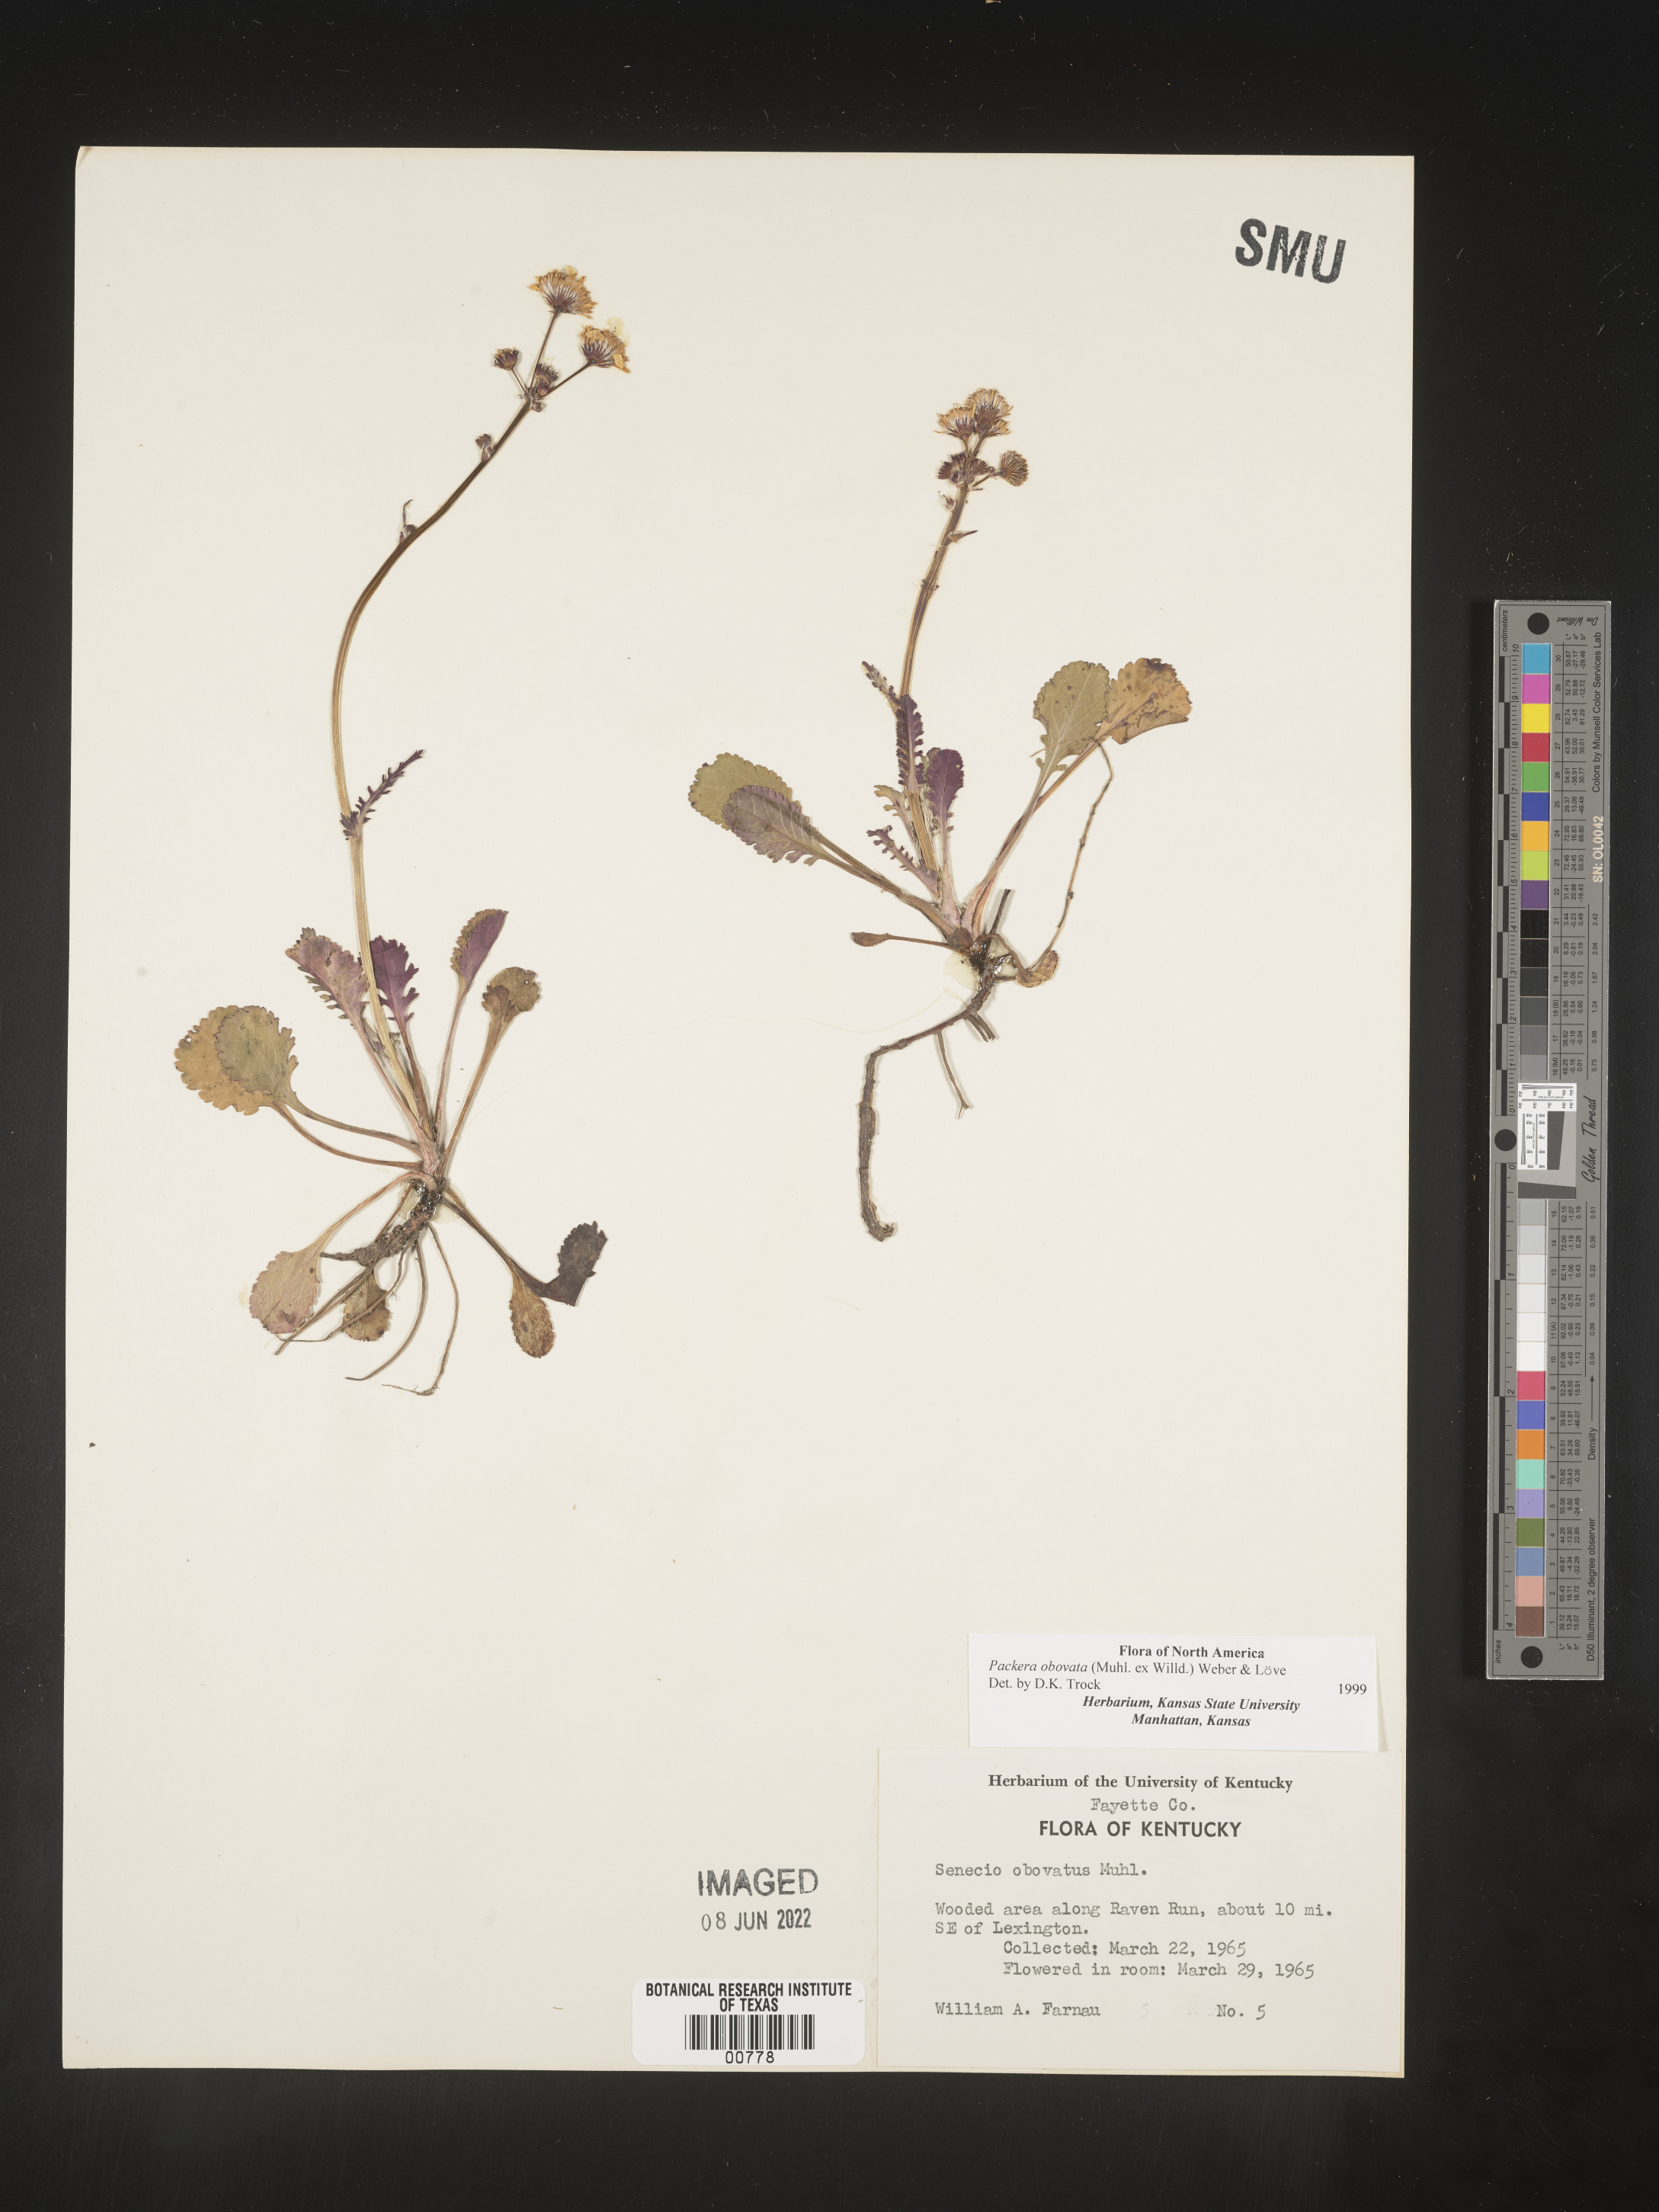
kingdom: Plantae
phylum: Tracheophyta
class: Magnoliopsida
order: Asterales
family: Asteraceae
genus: Packera
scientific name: Packera obovata
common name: Round-leaf ragwort
